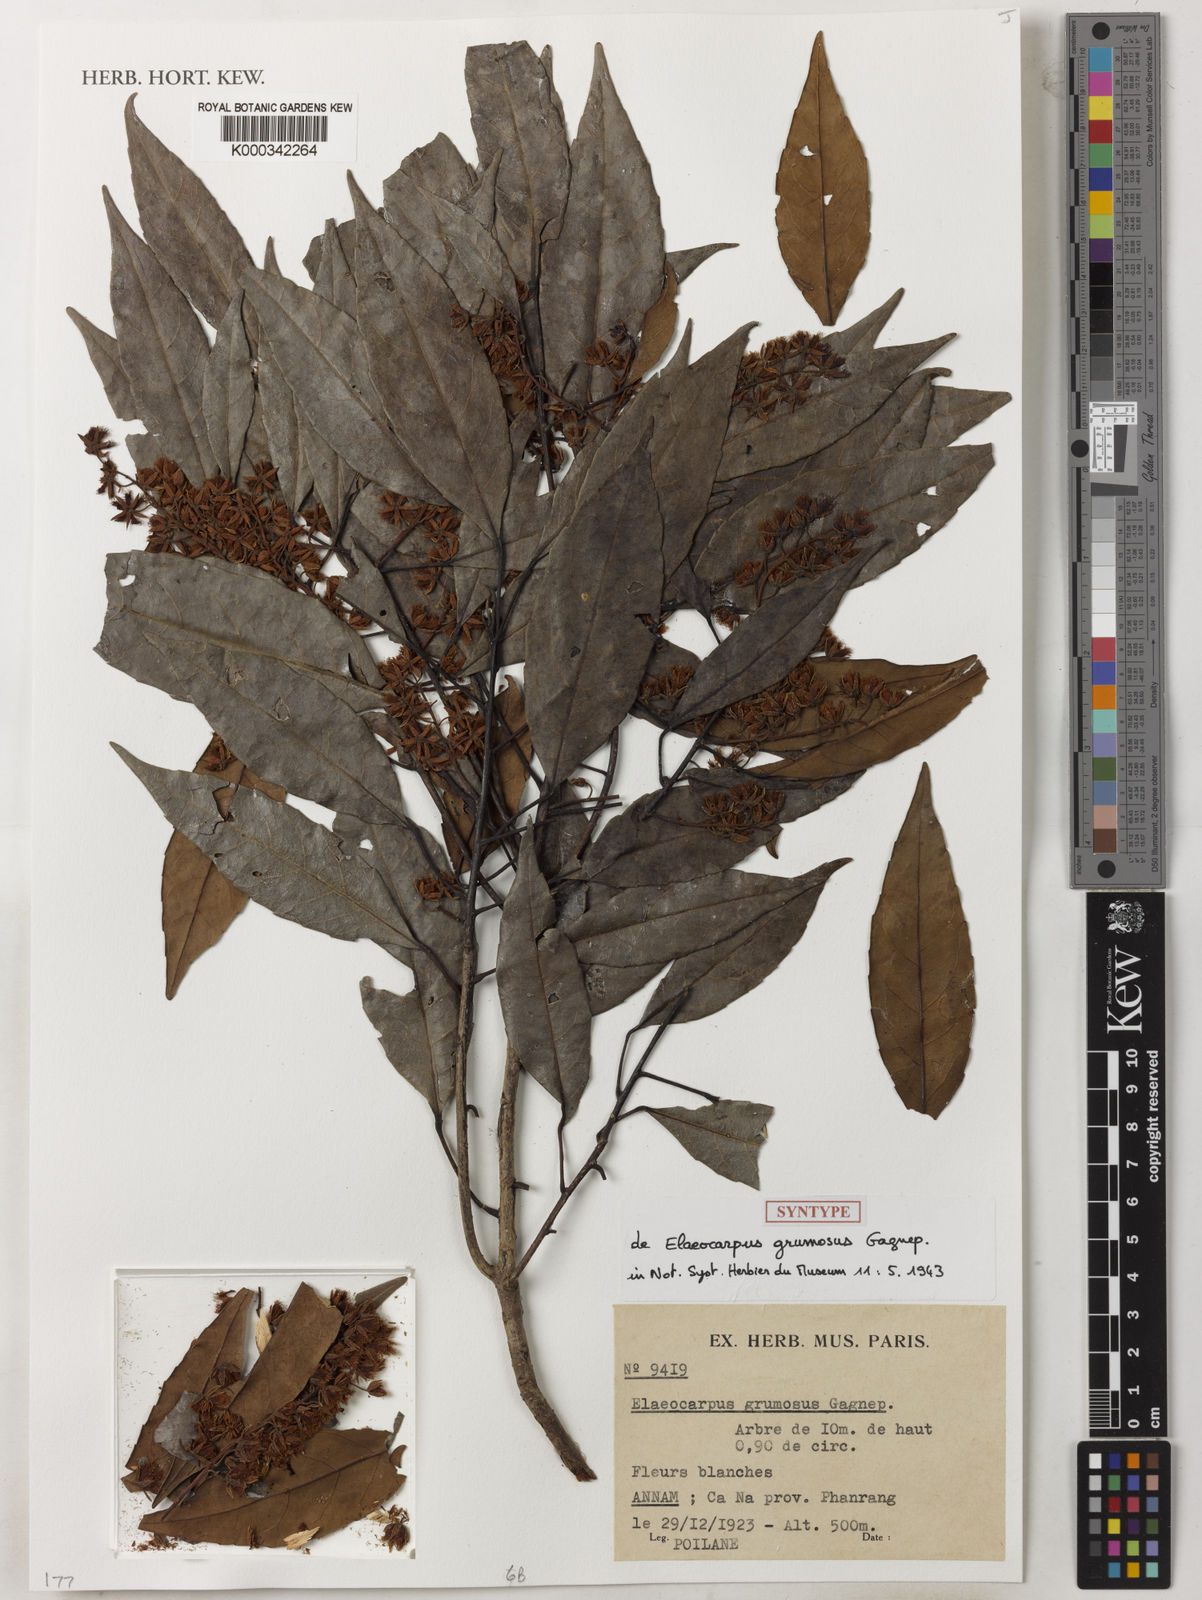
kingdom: Plantae
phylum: Tracheophyta
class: Magnoliopsida
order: Oxalidales
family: Elaeocarpaceae
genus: Elaeocarpus
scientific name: Elaeocarpus grumosus
